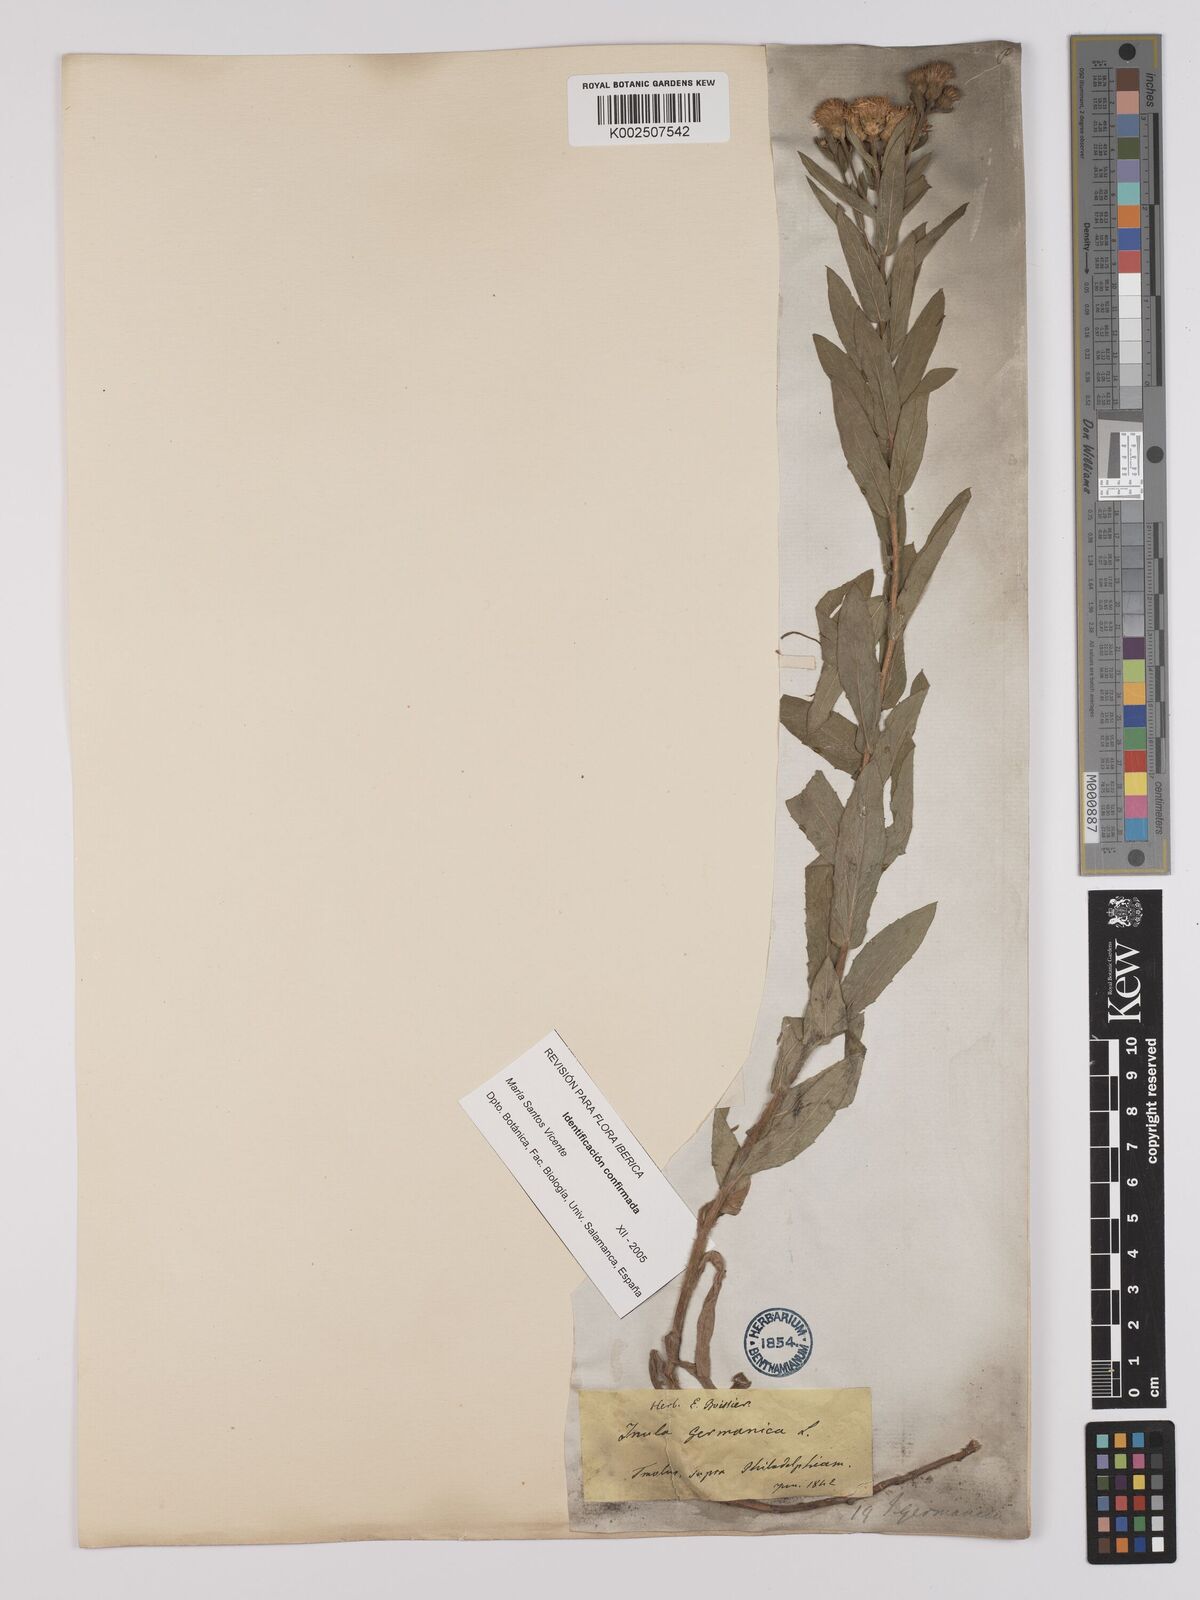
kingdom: Plantae
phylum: Tracheophyta
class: Magnoliopsida
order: Asterales
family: Asteraceae
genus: Pentanema
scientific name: Pentanema germanicum
